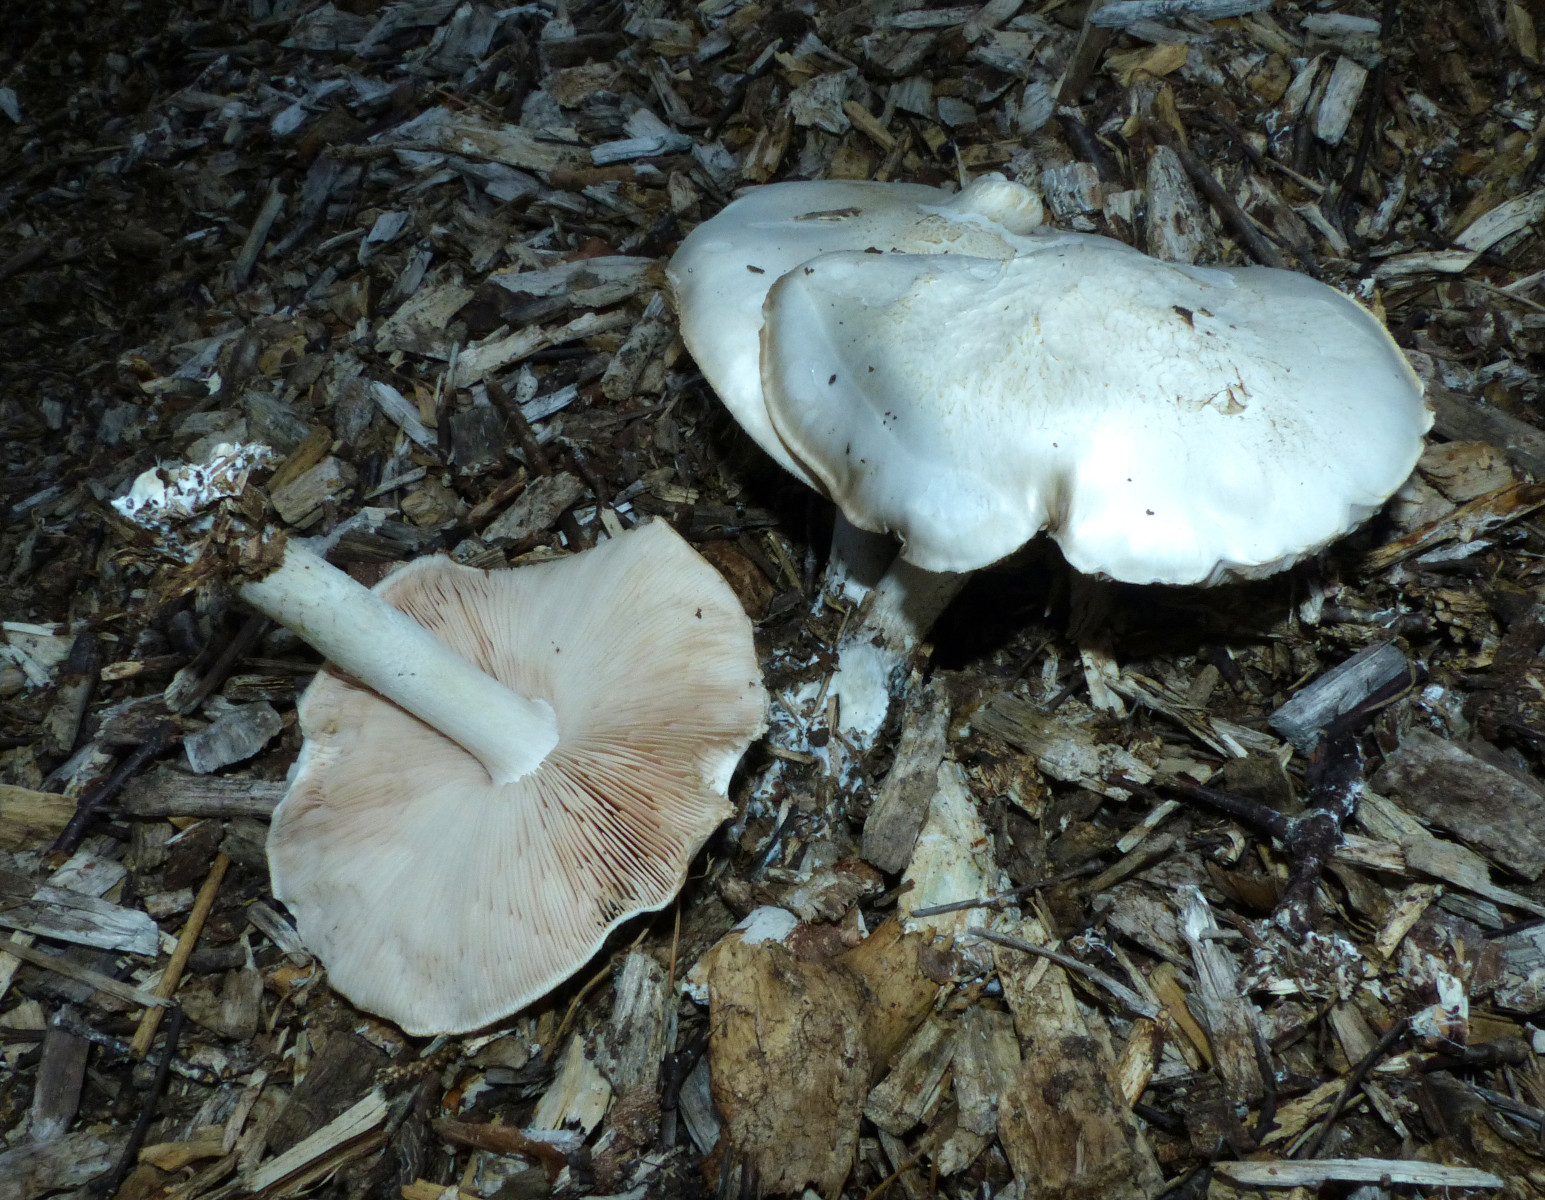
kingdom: Fungi
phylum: Basidiomycota
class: Agaricomycetes
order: Agaricales
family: Pluteaceae
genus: Pluteus
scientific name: Pluteus
